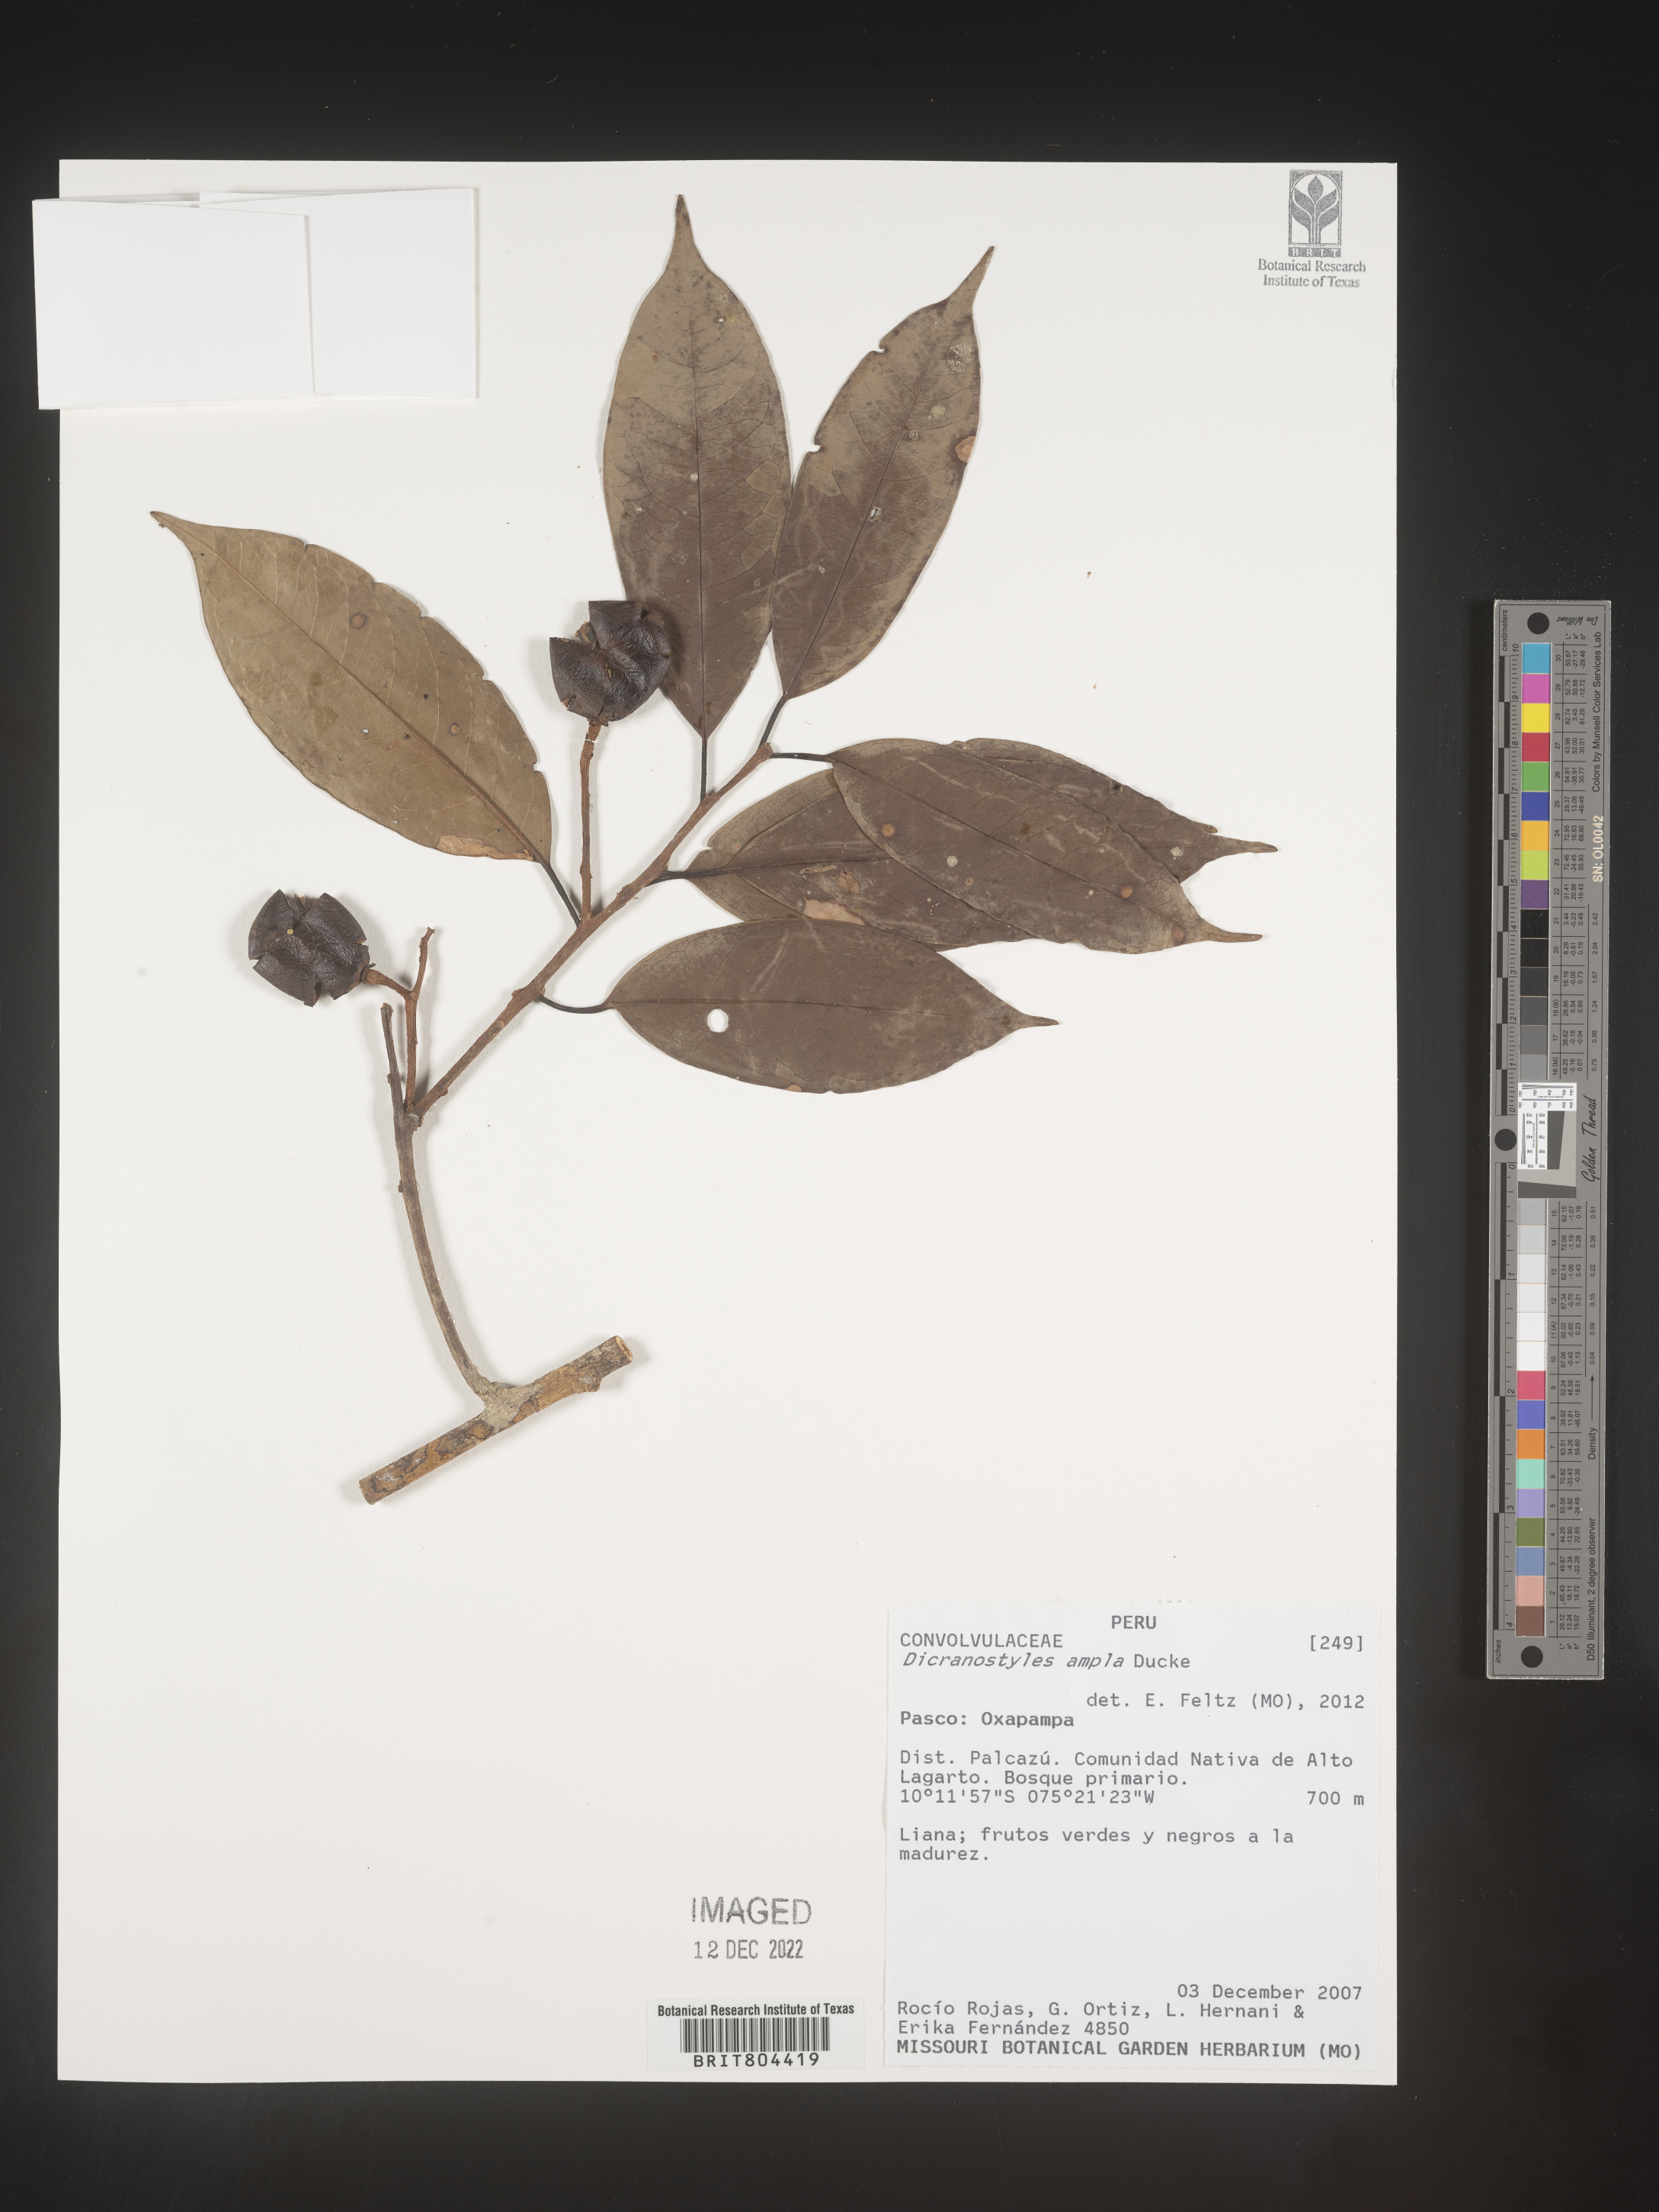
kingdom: Plantae
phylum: Tracheophyta
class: Magnoliopsida
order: Solanales
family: Convolvulaceae
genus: Dicranostyles
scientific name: Dicranostyles
